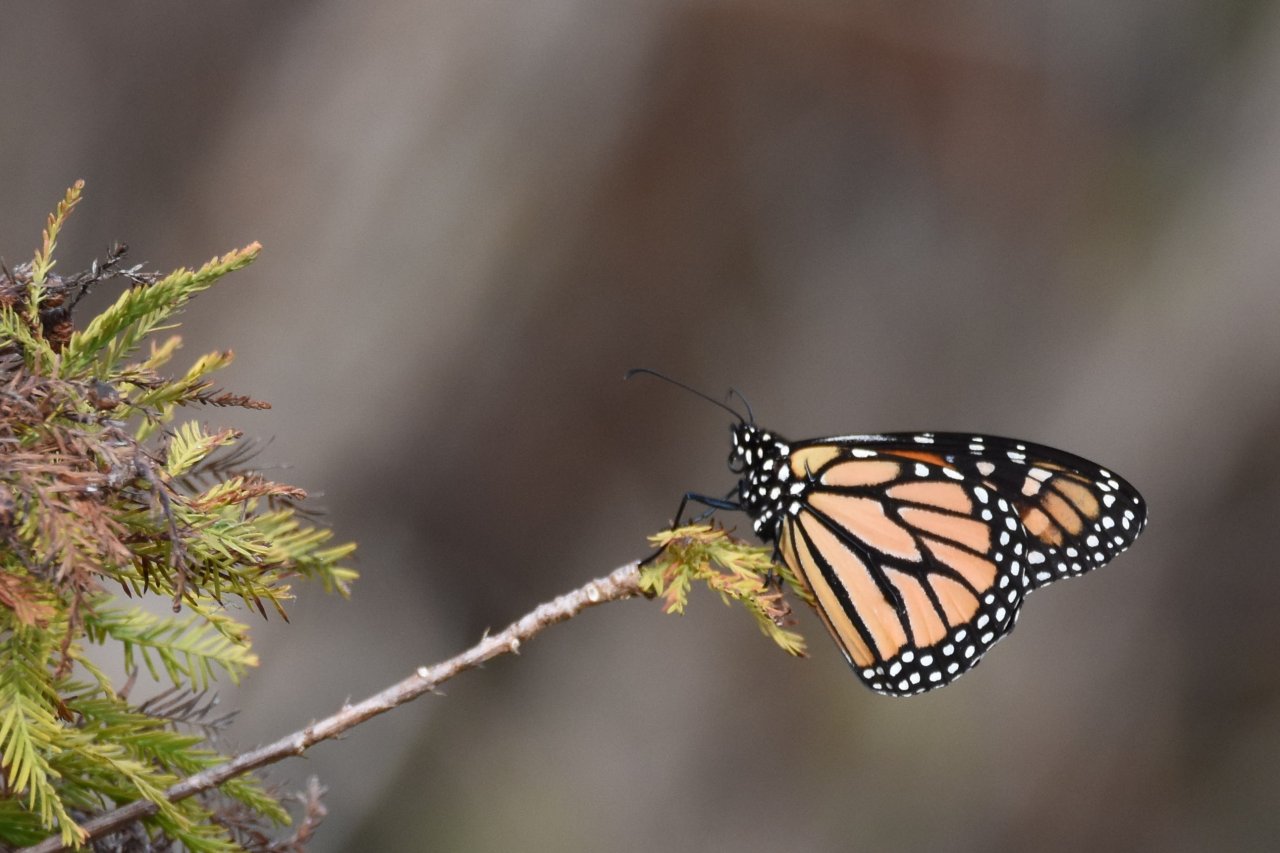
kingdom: Animalia
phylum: Arthropoda
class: Insecta
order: Lepidoptera
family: Nymphalidae
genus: Danaus
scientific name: Danaus plexippus
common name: Monarch
